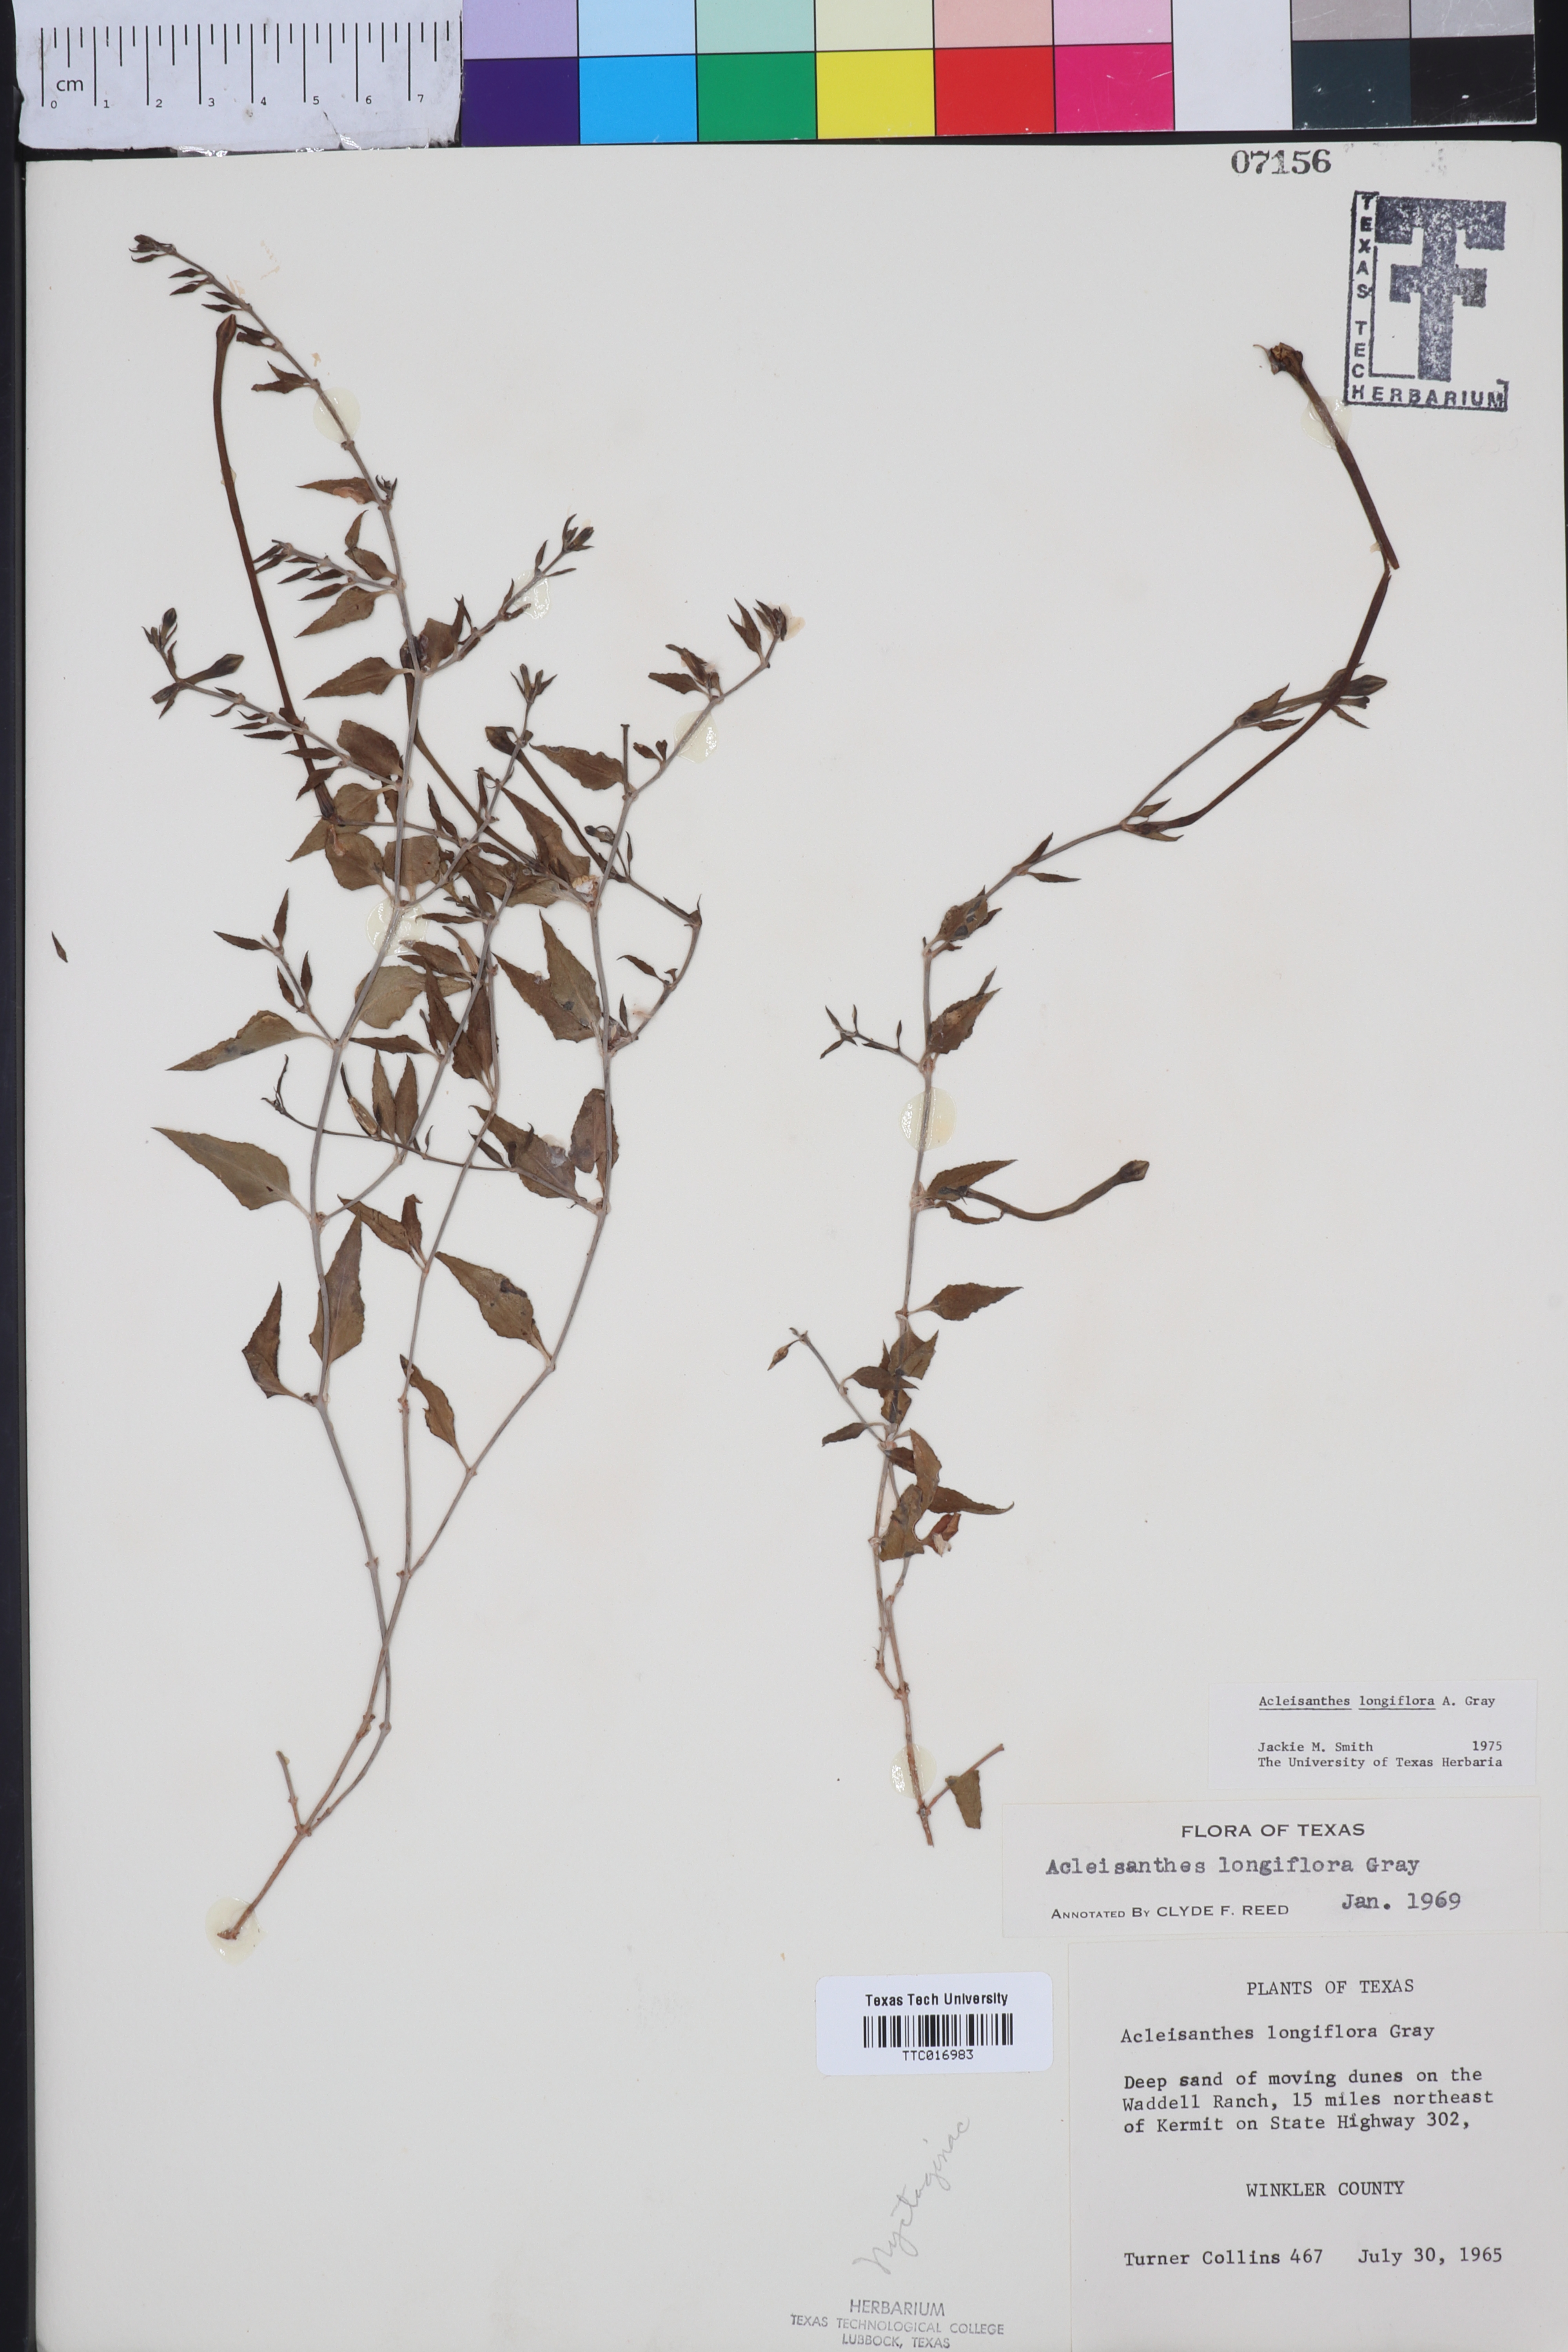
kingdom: Plantae
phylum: Tracheophyta
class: Magnoliopsida
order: Caryophyllales
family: Nyctaginaceae
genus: Acleisanthes
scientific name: Acleisanthes longiflora
